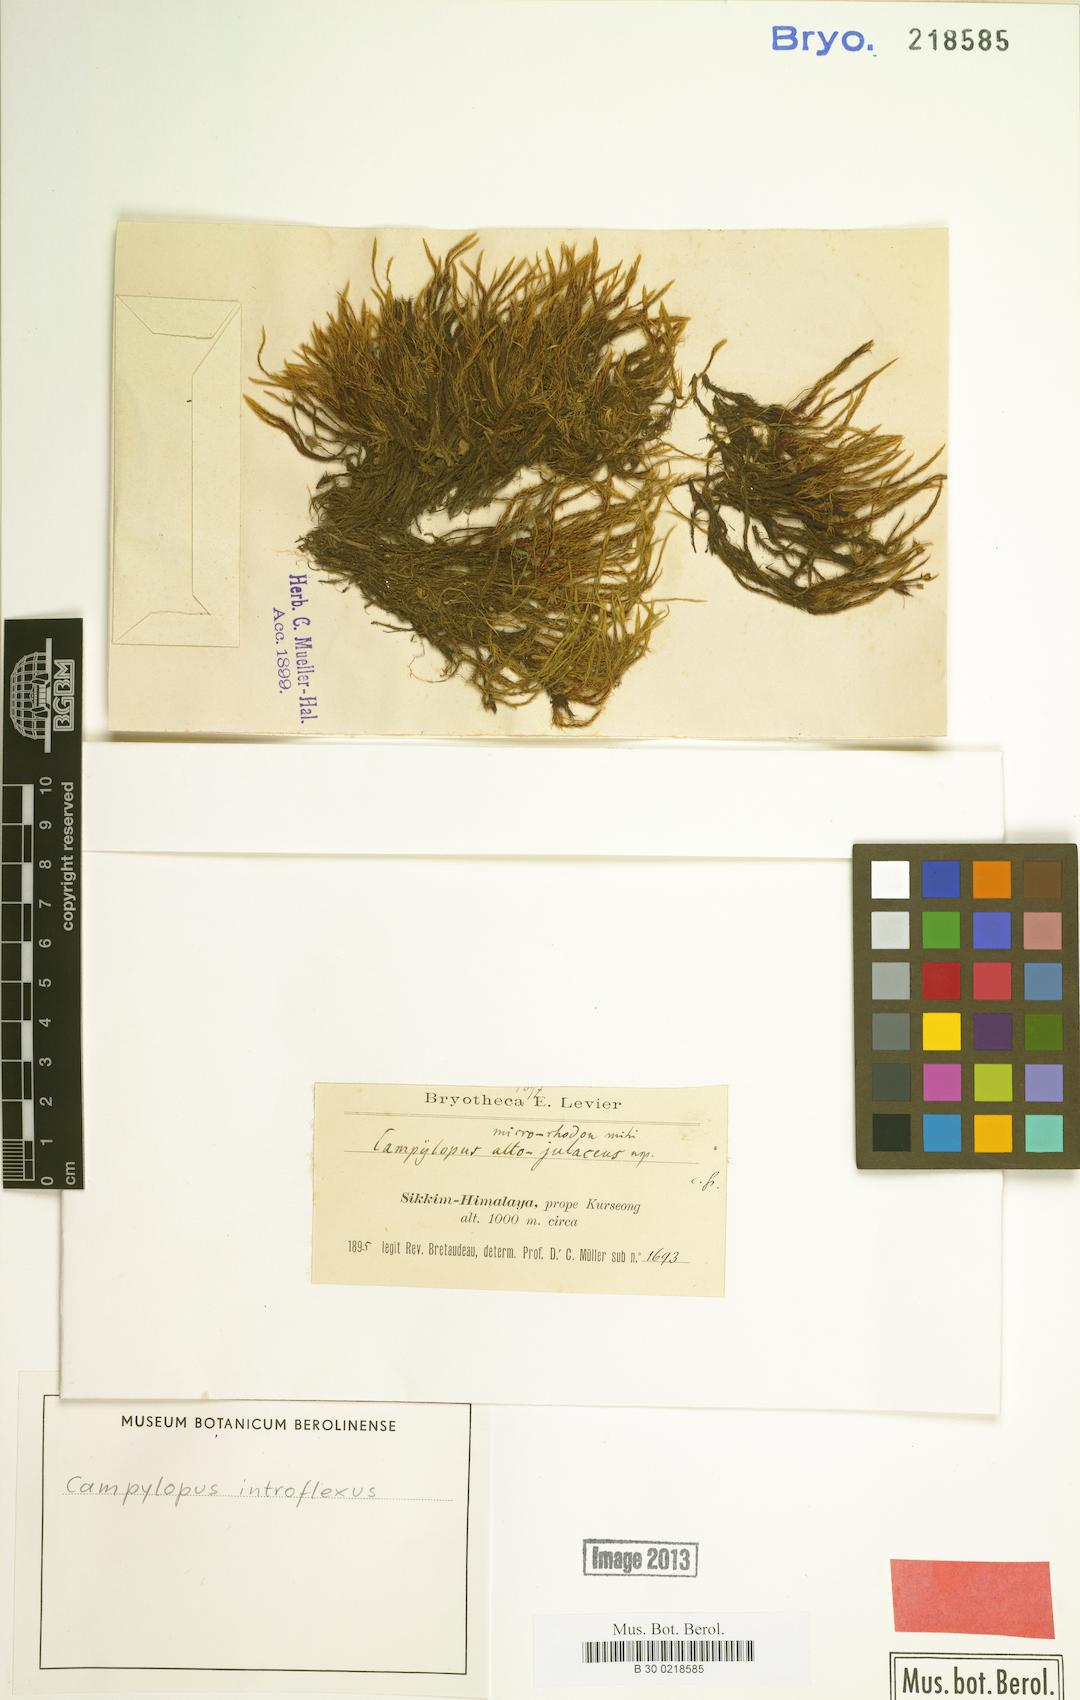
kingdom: Plantae
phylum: Bryophyta
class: Bryopsida
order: Dicranales
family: Leucobryaceae
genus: Campylopus
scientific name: Campylopus introflexus
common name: Heath star moss
